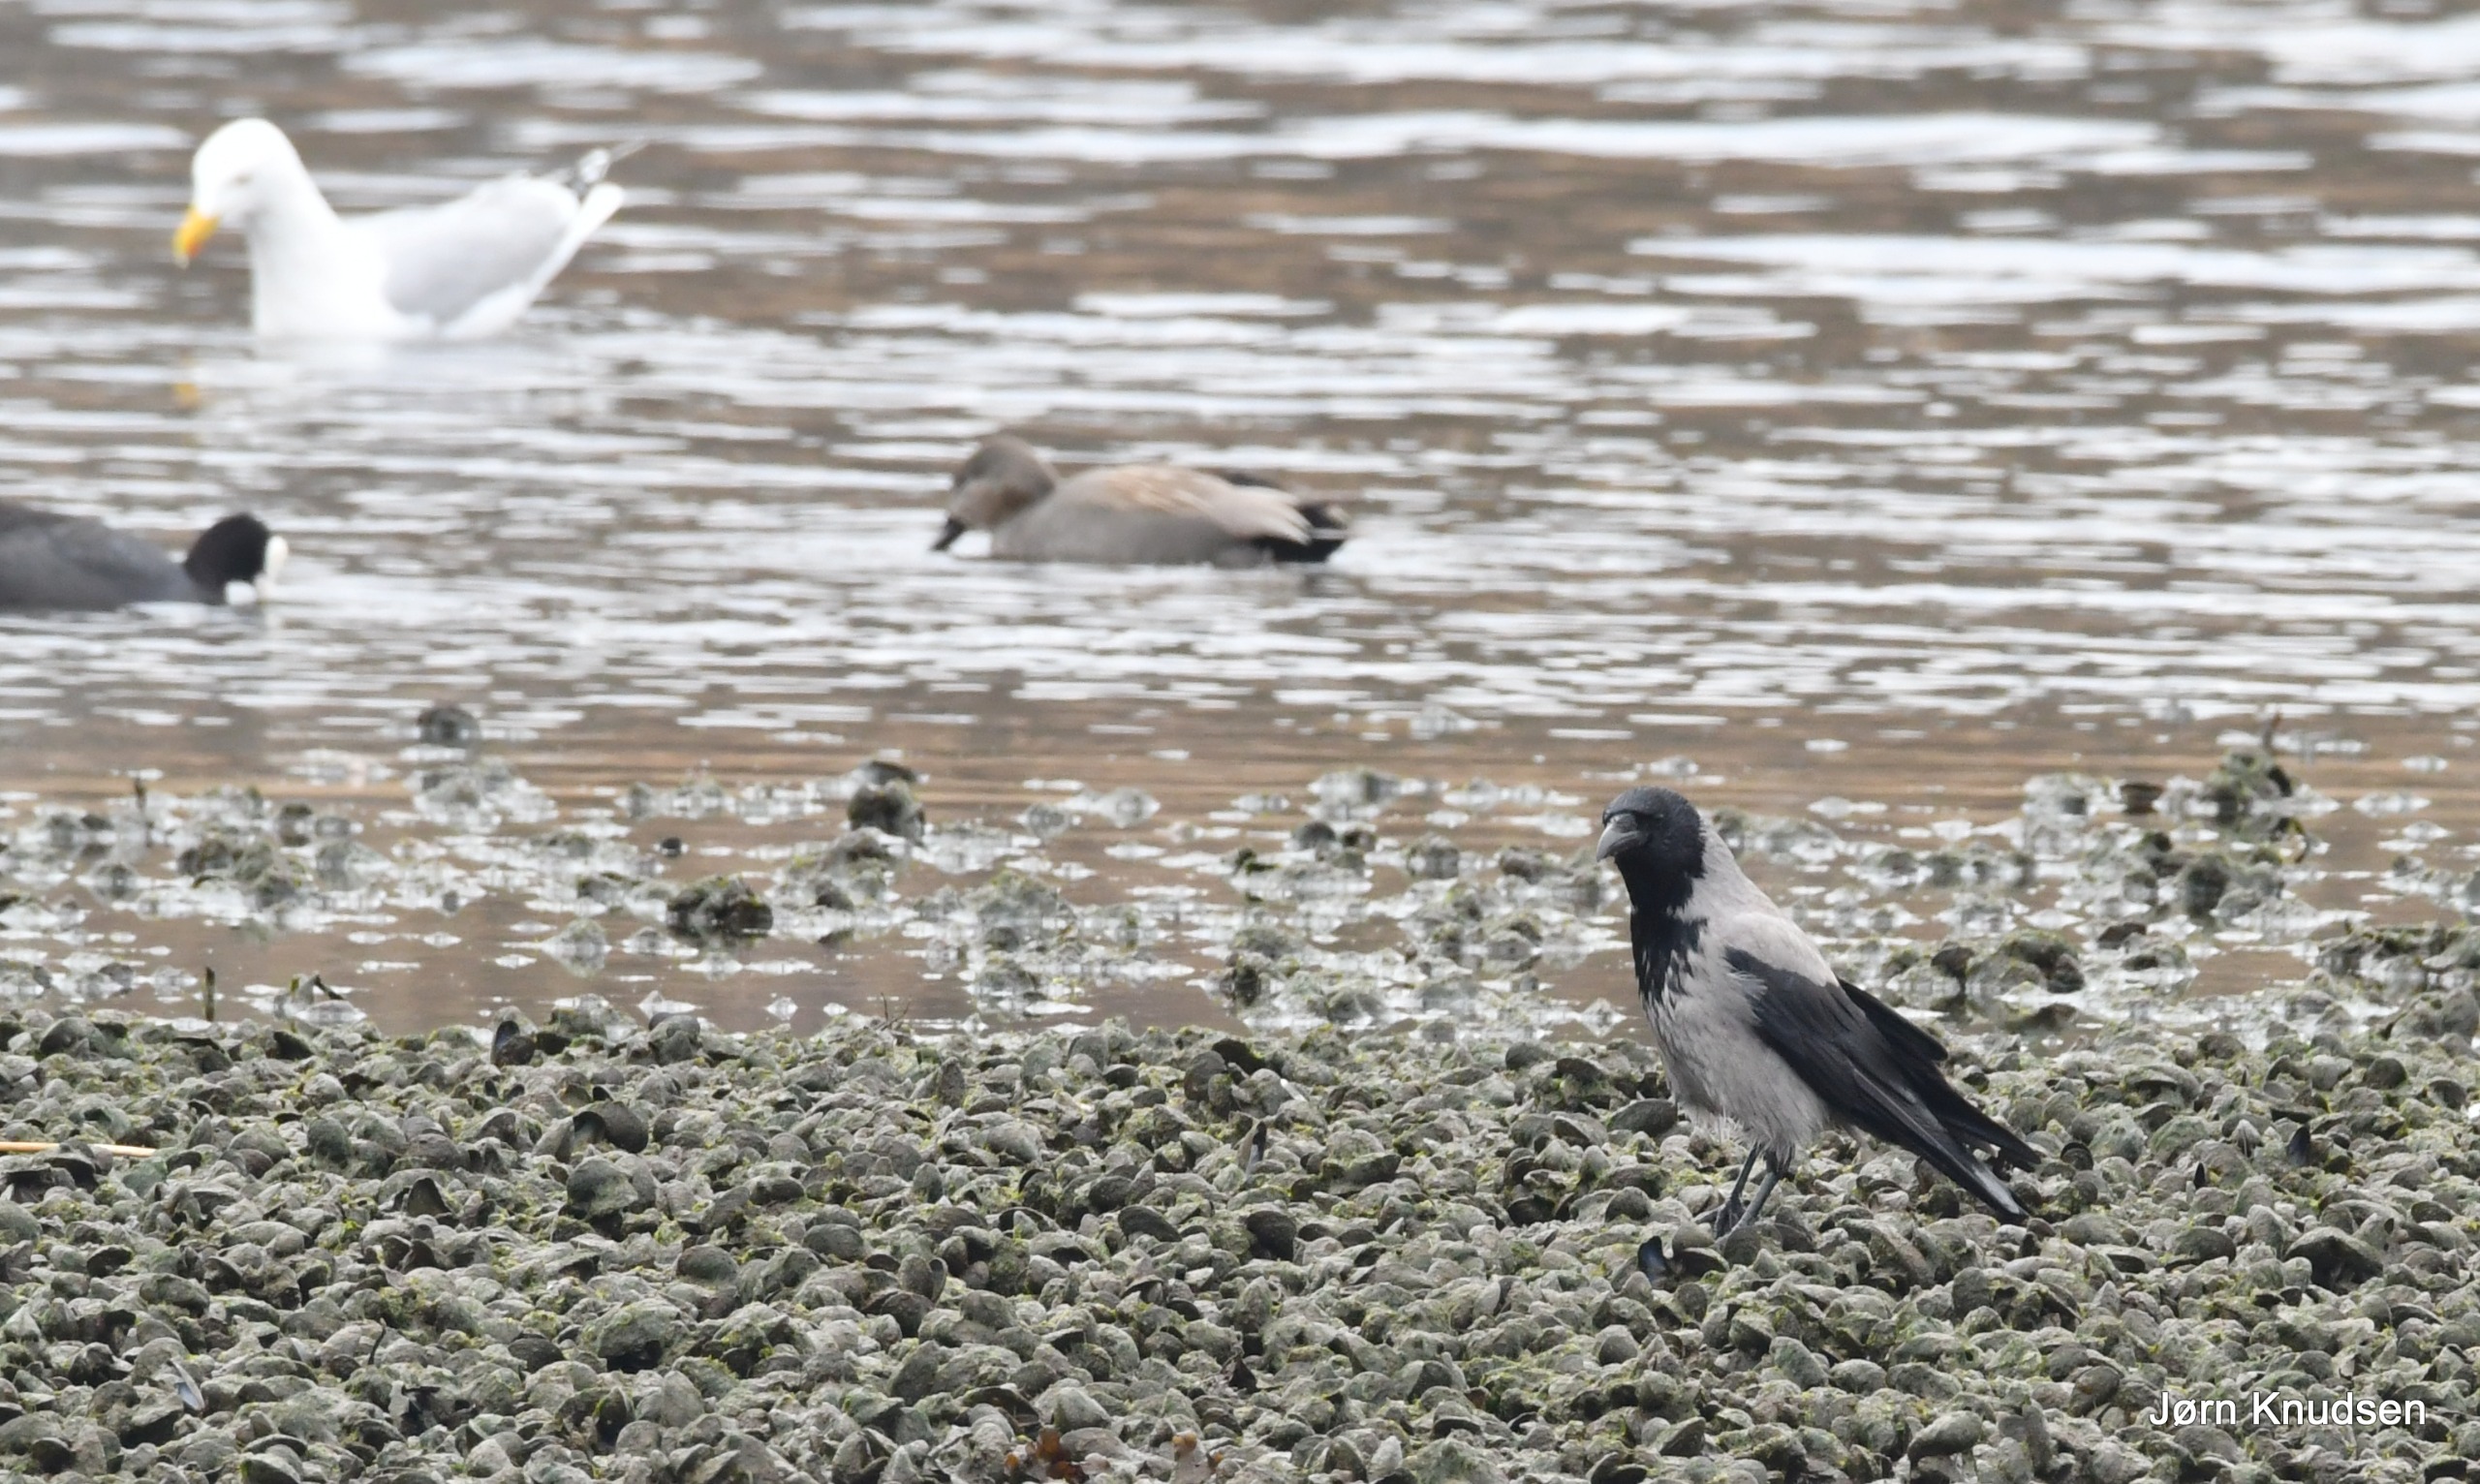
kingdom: Animalia
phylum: Chordata
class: Aves
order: Passeriformes
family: Corvidae
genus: Corvus
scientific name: Corvus cornix
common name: Gråkrage
